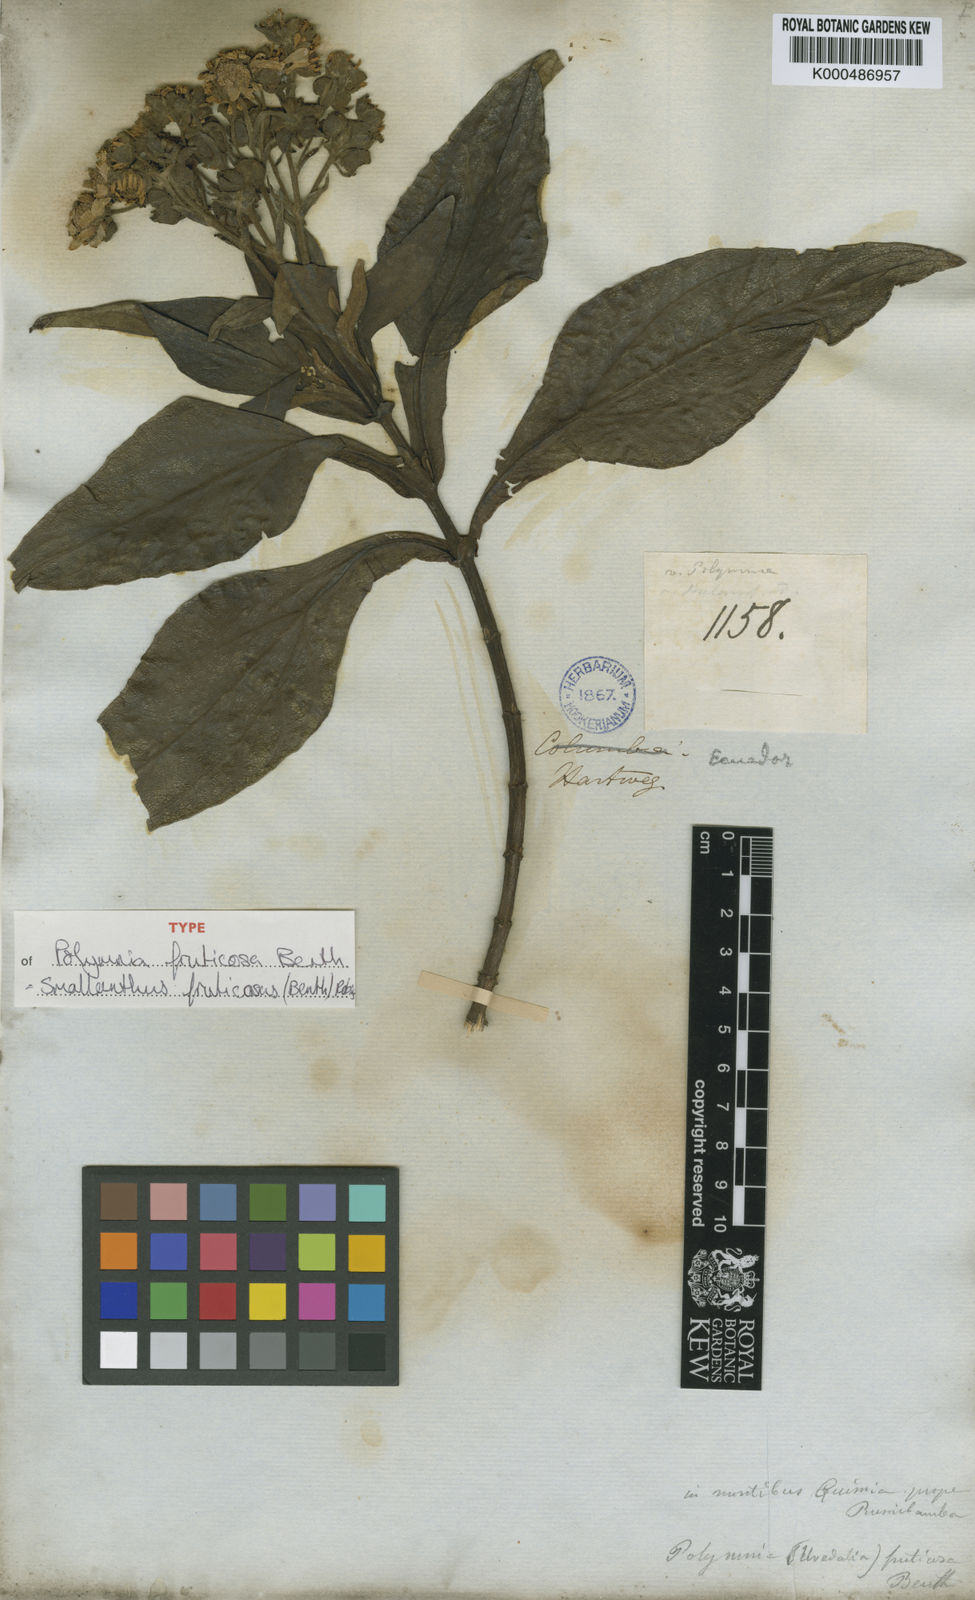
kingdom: Plantae
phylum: Tracheophyta
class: Magnoliopsida
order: Asterales
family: Asteraceae
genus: Smallanthus
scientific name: Smallanthus fruticosus
